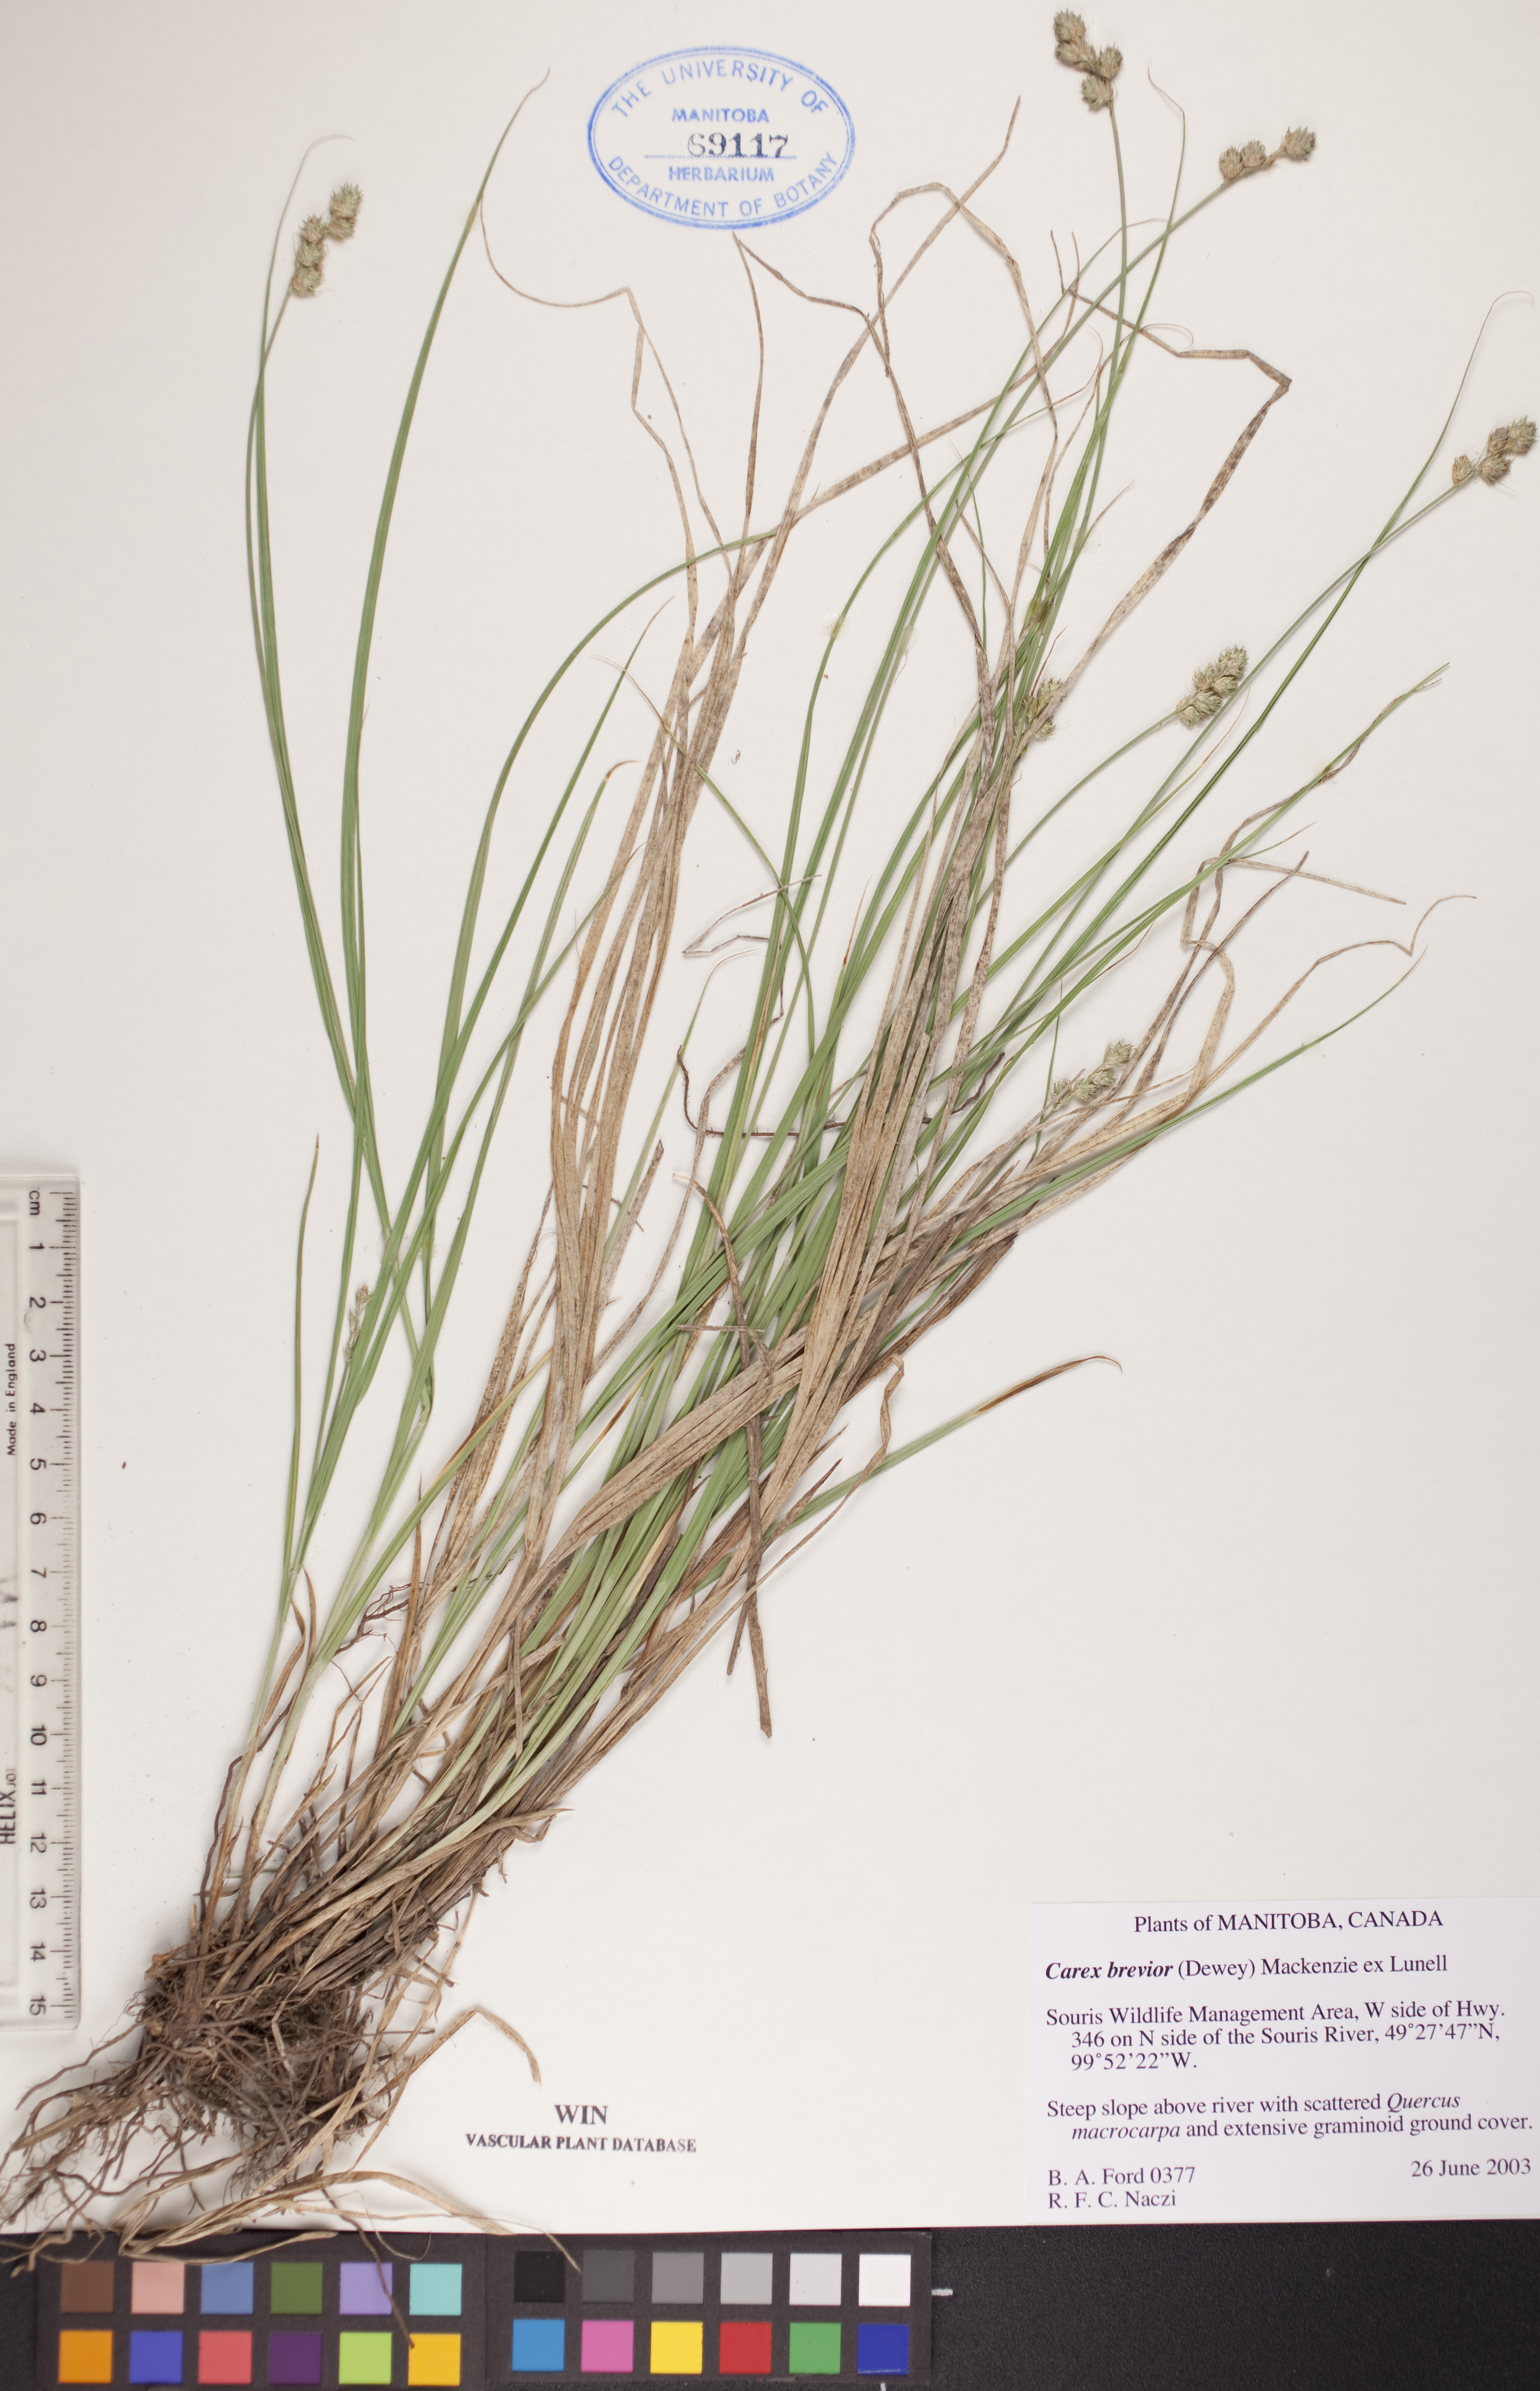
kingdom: Plantae
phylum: Tracheophyta
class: Liliopsida
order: Poales
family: Cyperaceae
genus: Carex
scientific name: Carex brevior
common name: Brevior sedge
